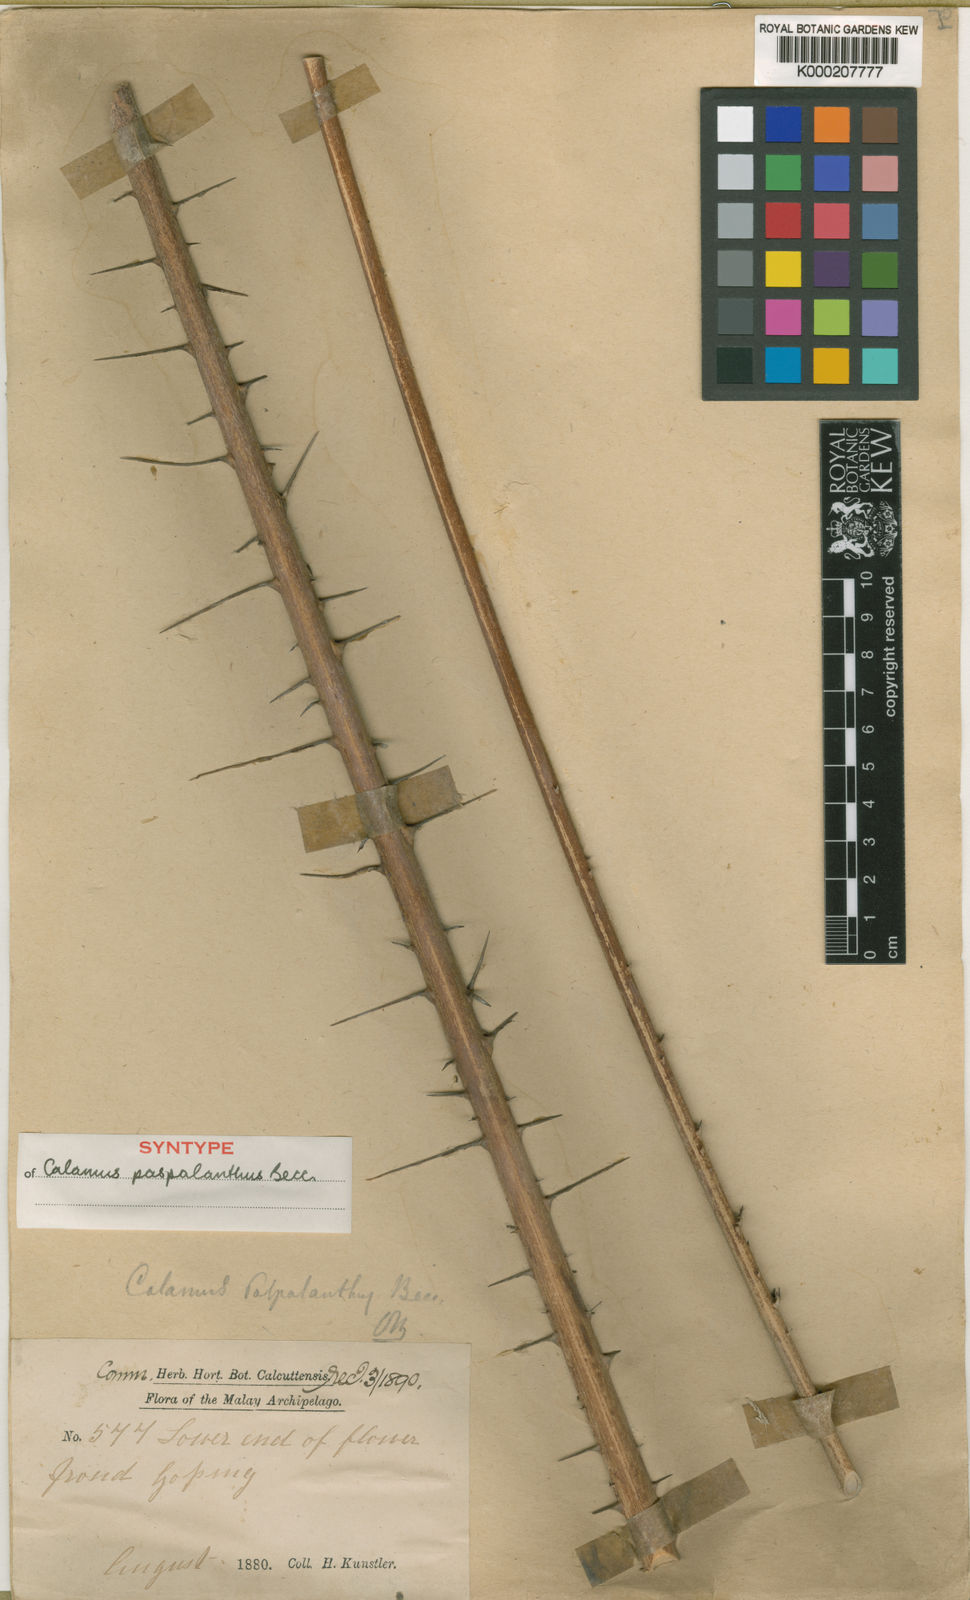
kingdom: Plantae
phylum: Tracheophyta
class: Liliopsida
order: Arecales
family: Arecaceae
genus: Calamus
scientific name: Calamus paspalanthus
